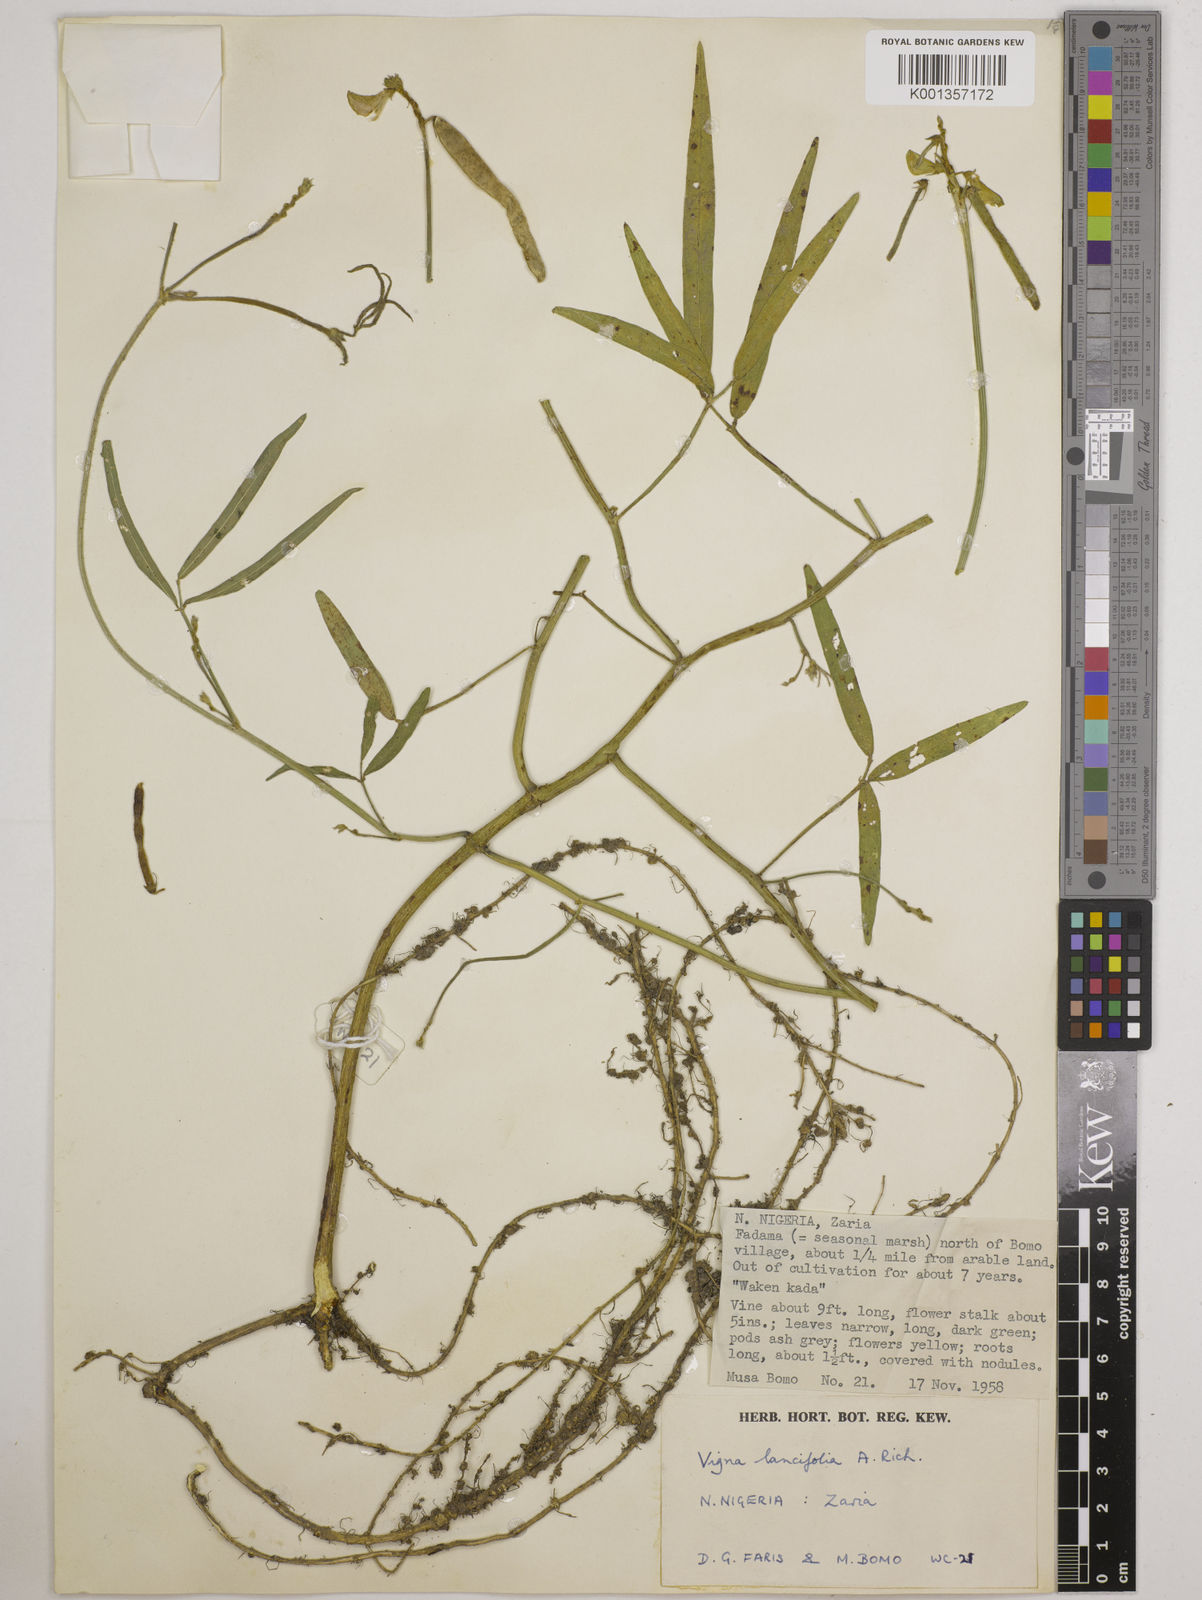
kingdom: Plantae
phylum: Tracheophyta
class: Magnoliopsida
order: Fabales
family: Fabaceae
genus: Vigna
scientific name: Vigna oblongifolia
